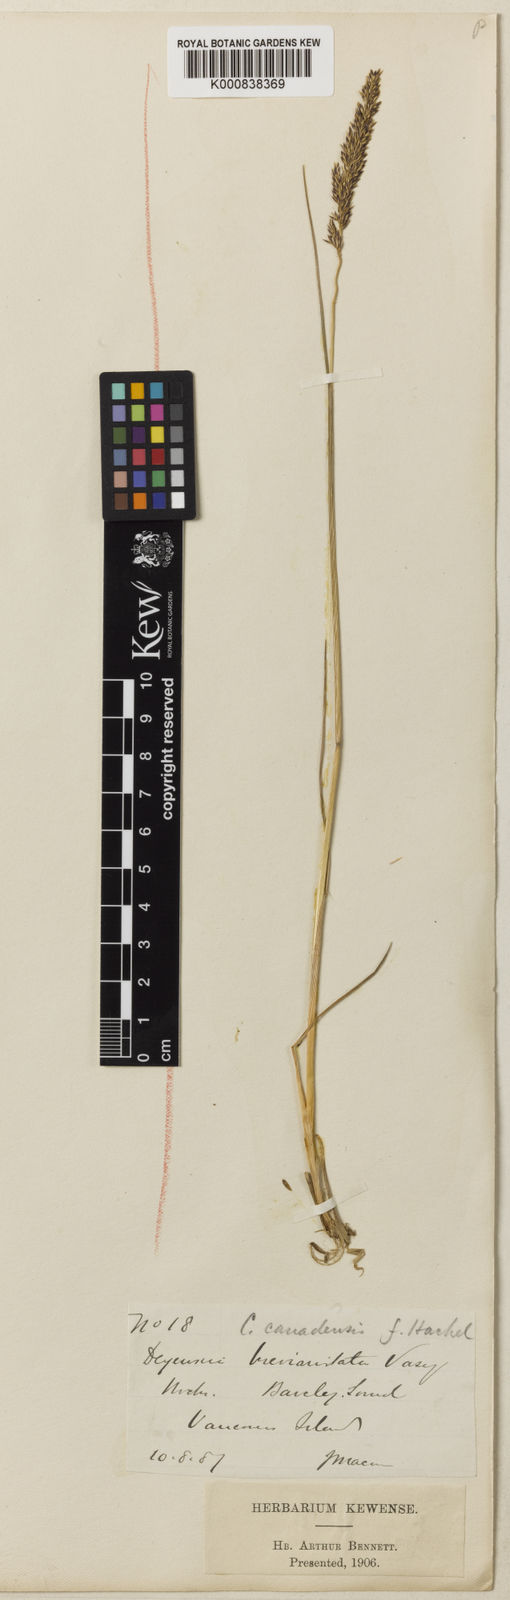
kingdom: Plantae
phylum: Tracheophyta
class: Liliopsida
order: Poales
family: Poaceae
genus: Calamagrostis
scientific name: Calamagrostis nutkaensis
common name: Pacific reed grass
